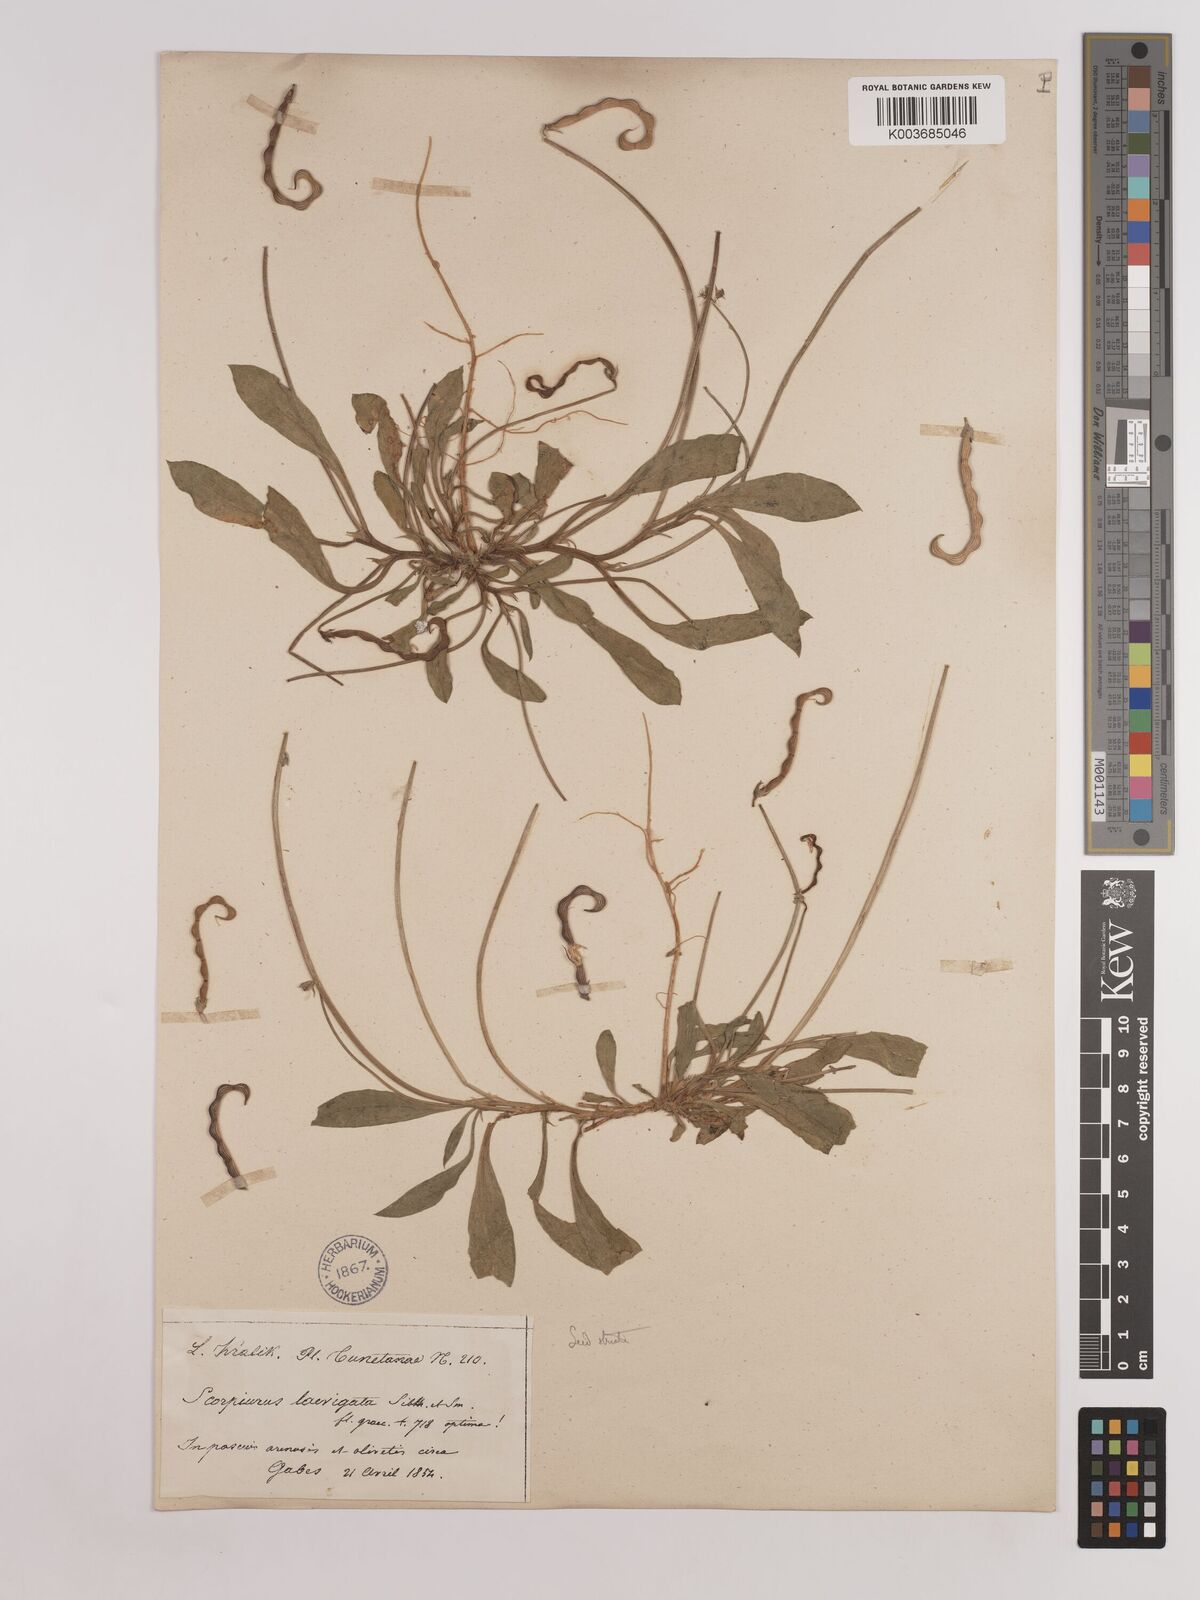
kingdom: Plantae
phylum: Tracheophyta
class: Magnoliopsida
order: Fabales
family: Fabaceae
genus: Scorpiurus
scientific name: Scorpiurus muricatus
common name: Caterpillar-plant
